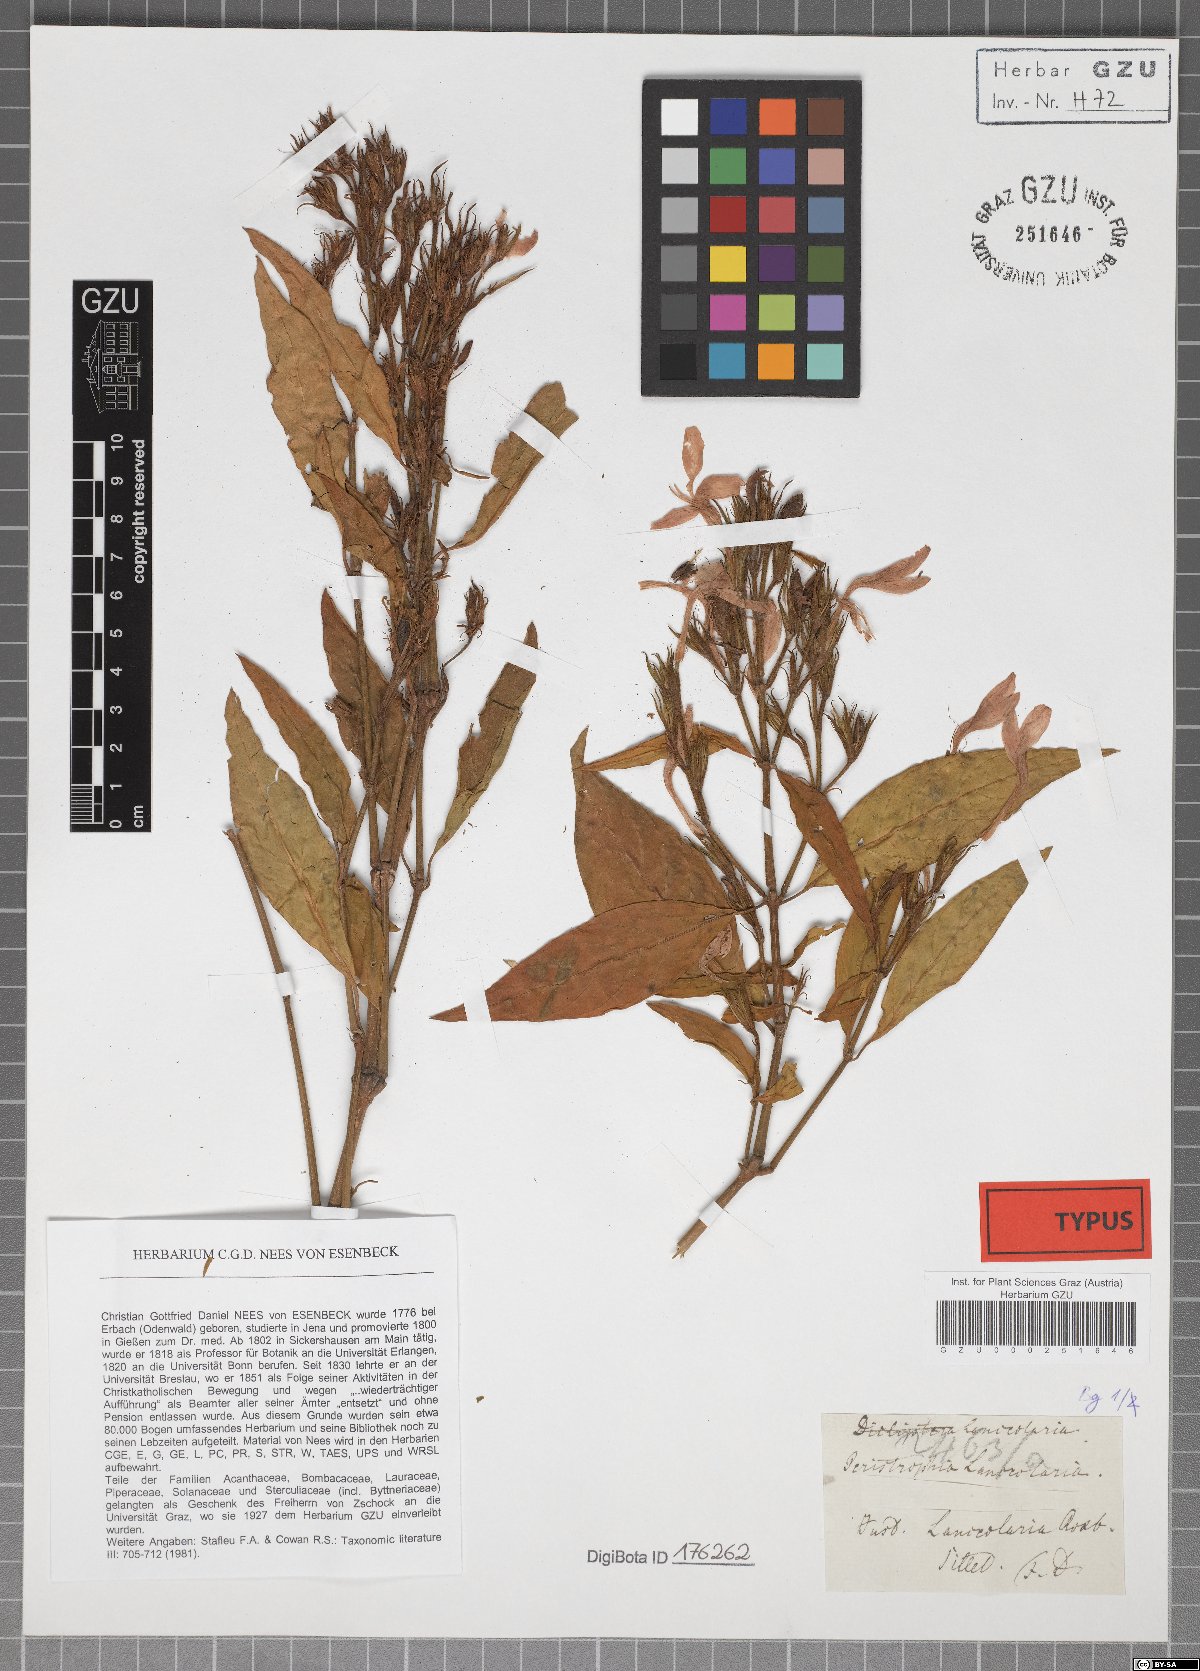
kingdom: Plantae
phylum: Tracheophyta
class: Magnoliopsida
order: Lamiales
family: Acanthaceae
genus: Dicliptera
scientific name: Dicliptera lanceolaria
